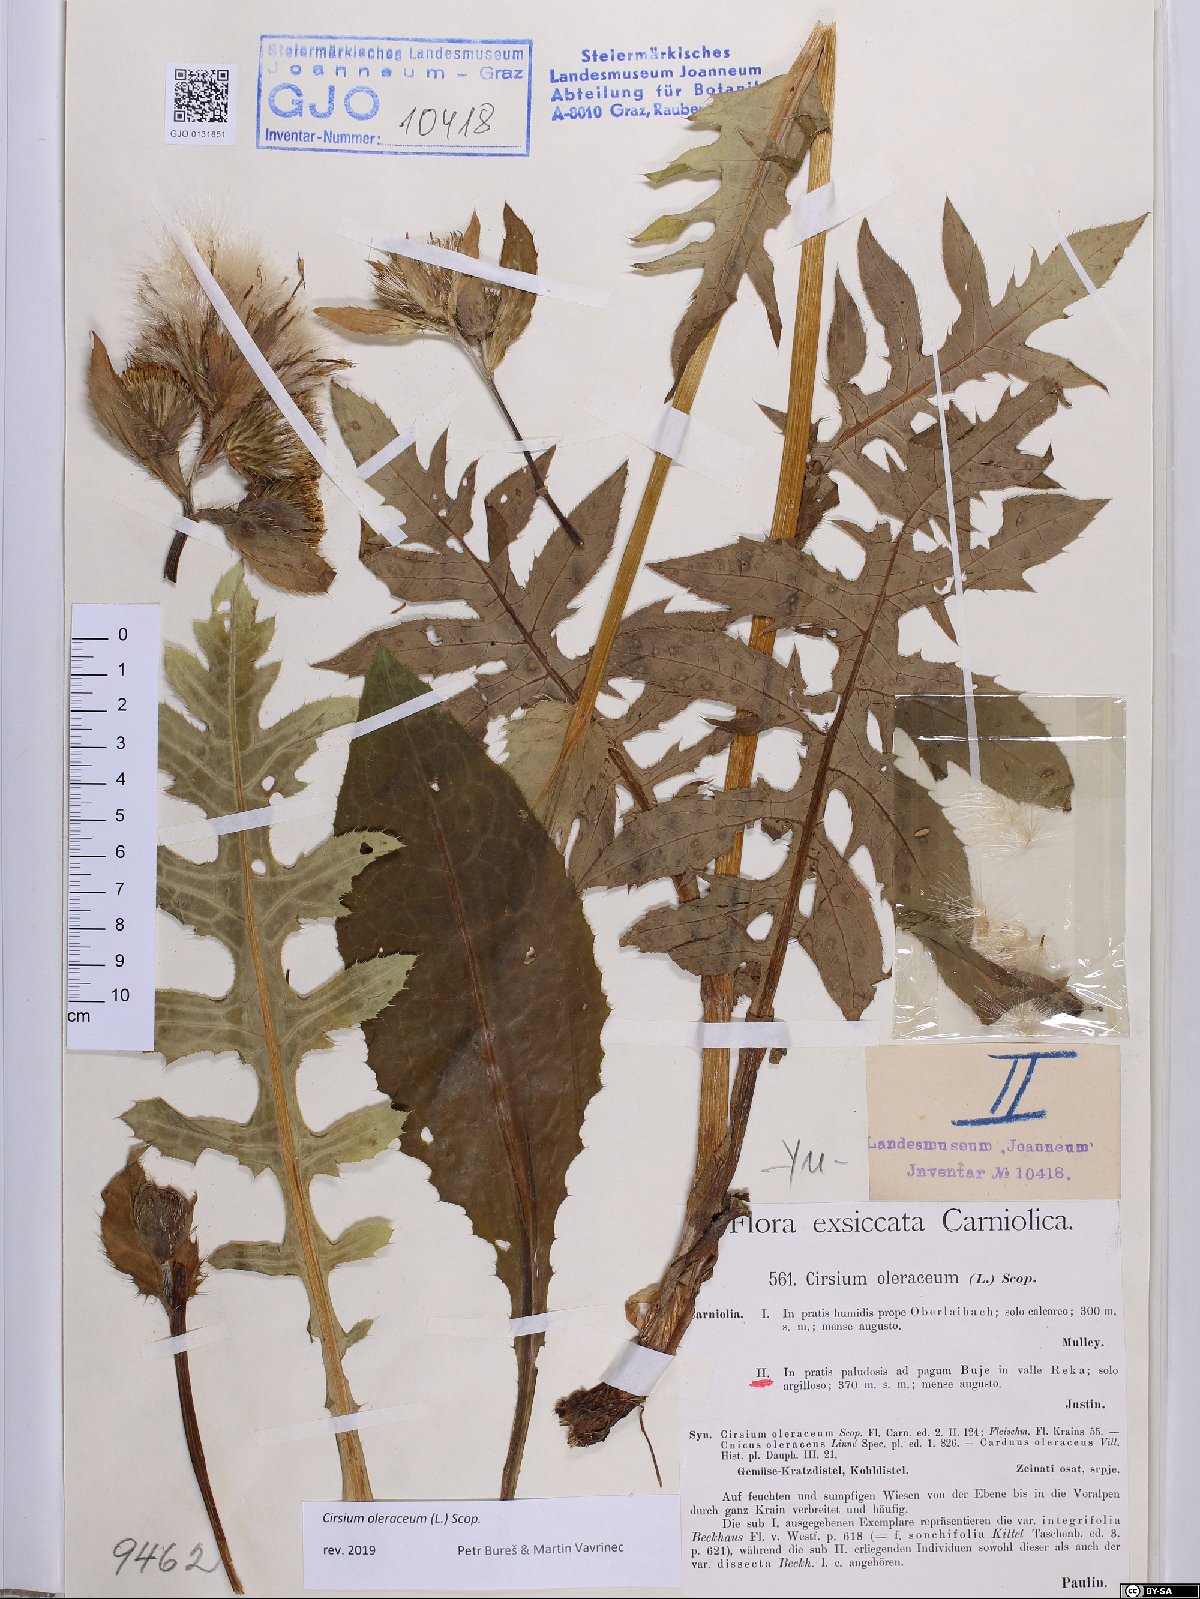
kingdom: Plantae
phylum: Tracheophyta
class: Magnoliopsida
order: Asterales
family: Asteraceae
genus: Cirsium
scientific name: Cirsium oleraceum
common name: Cabbage thistle
